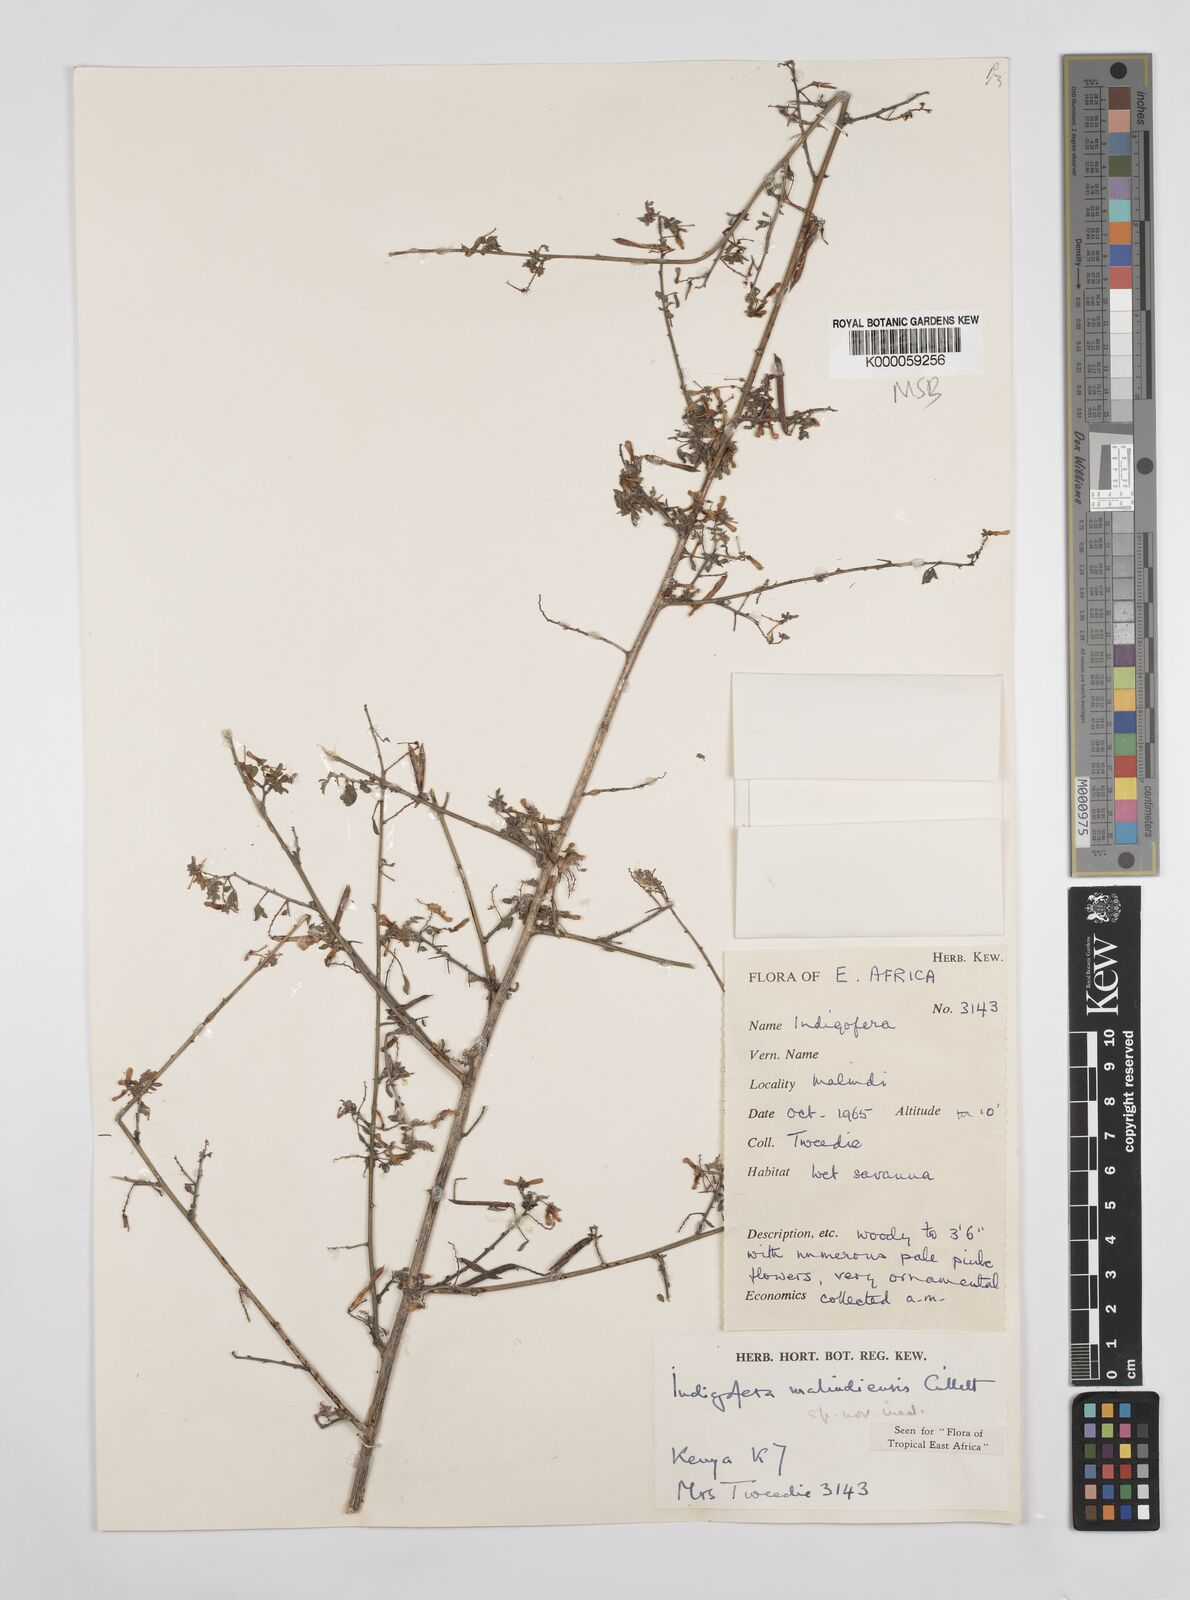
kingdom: Plantae
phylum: Tracheophyta
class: Magnoliopsida
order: Fabales
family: Fabaceae
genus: Indigofera
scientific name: Indigofera malindiensis
